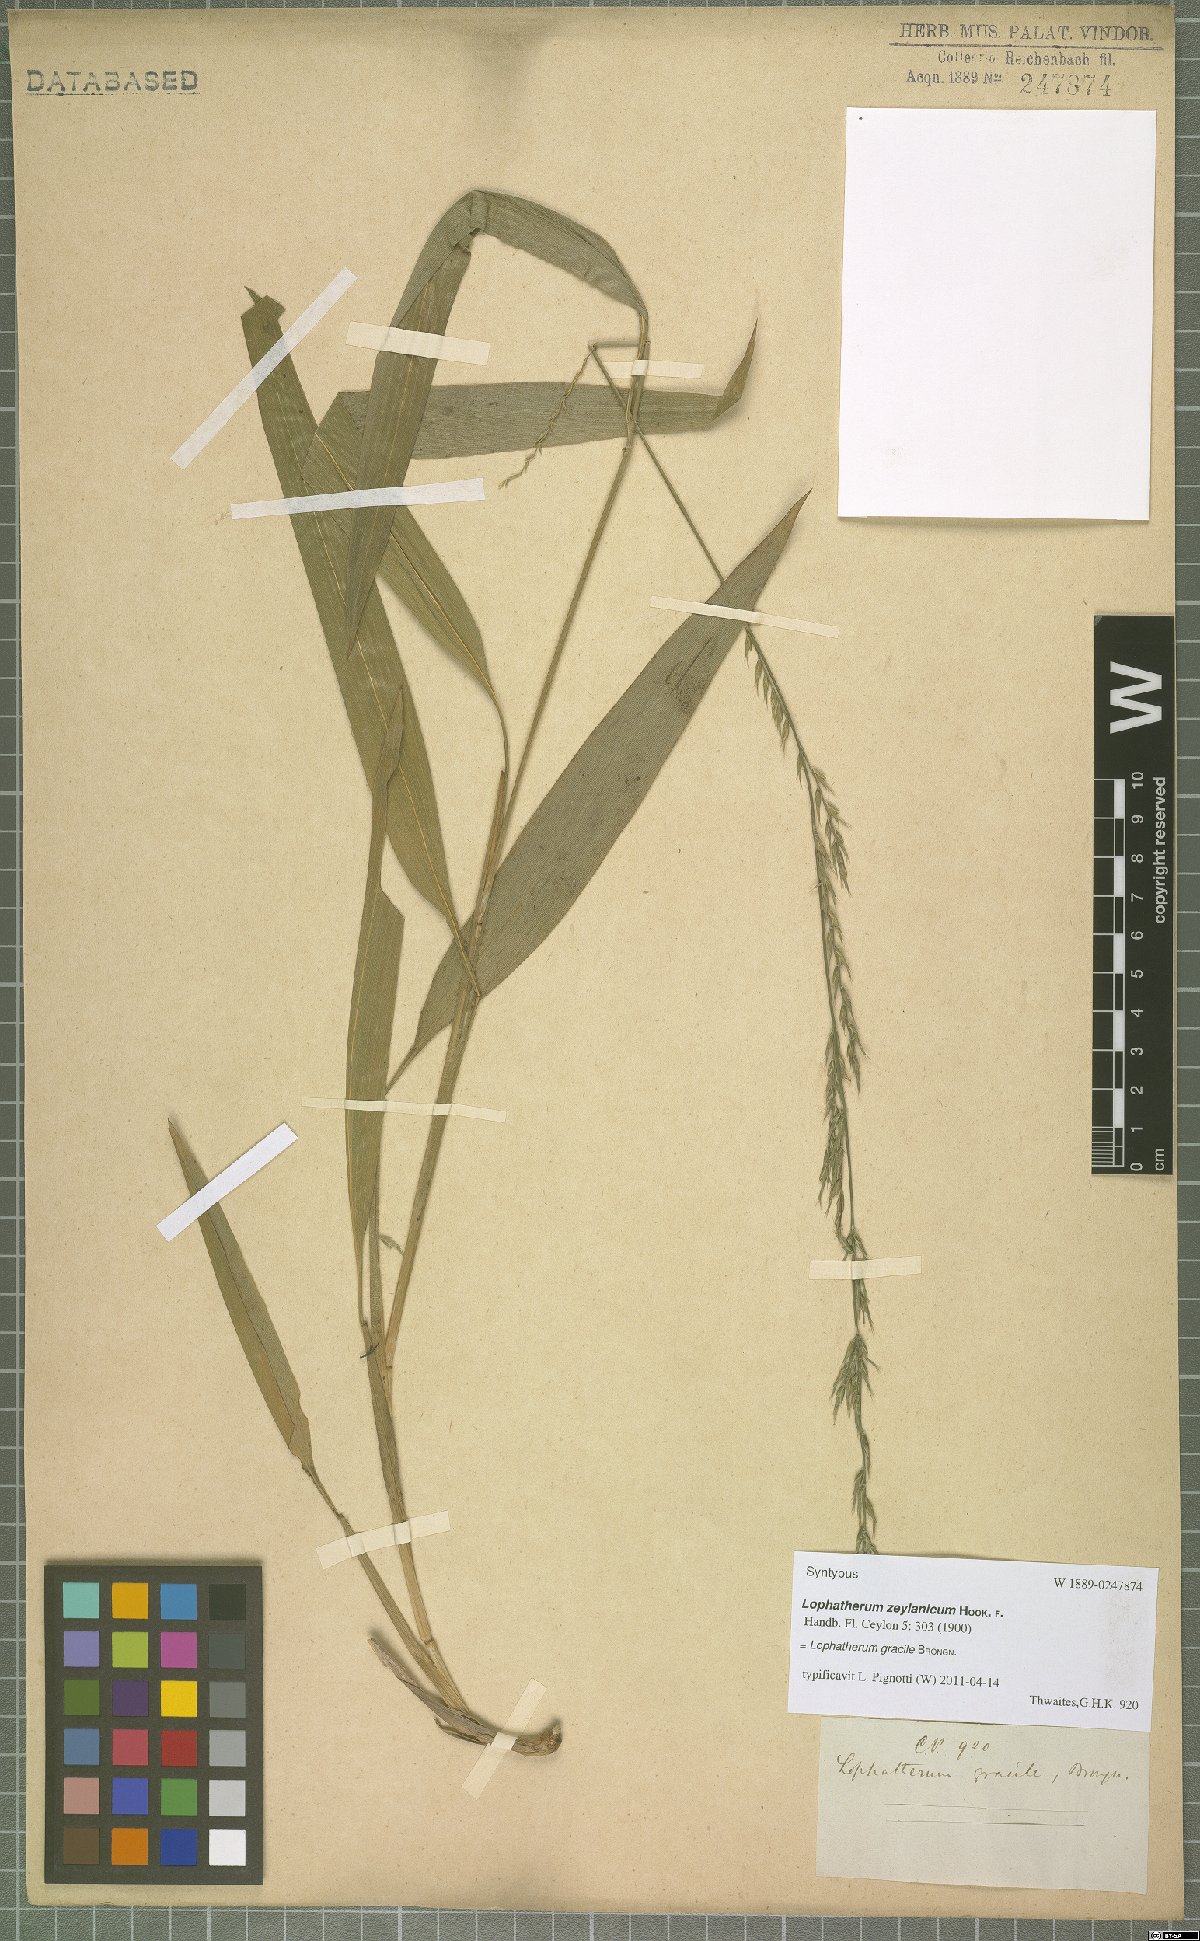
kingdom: Plantae
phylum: Tracheophyta
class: Liliopsida
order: Poales
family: Poaceae
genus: Lophatherum
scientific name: Lophatherum gracile
